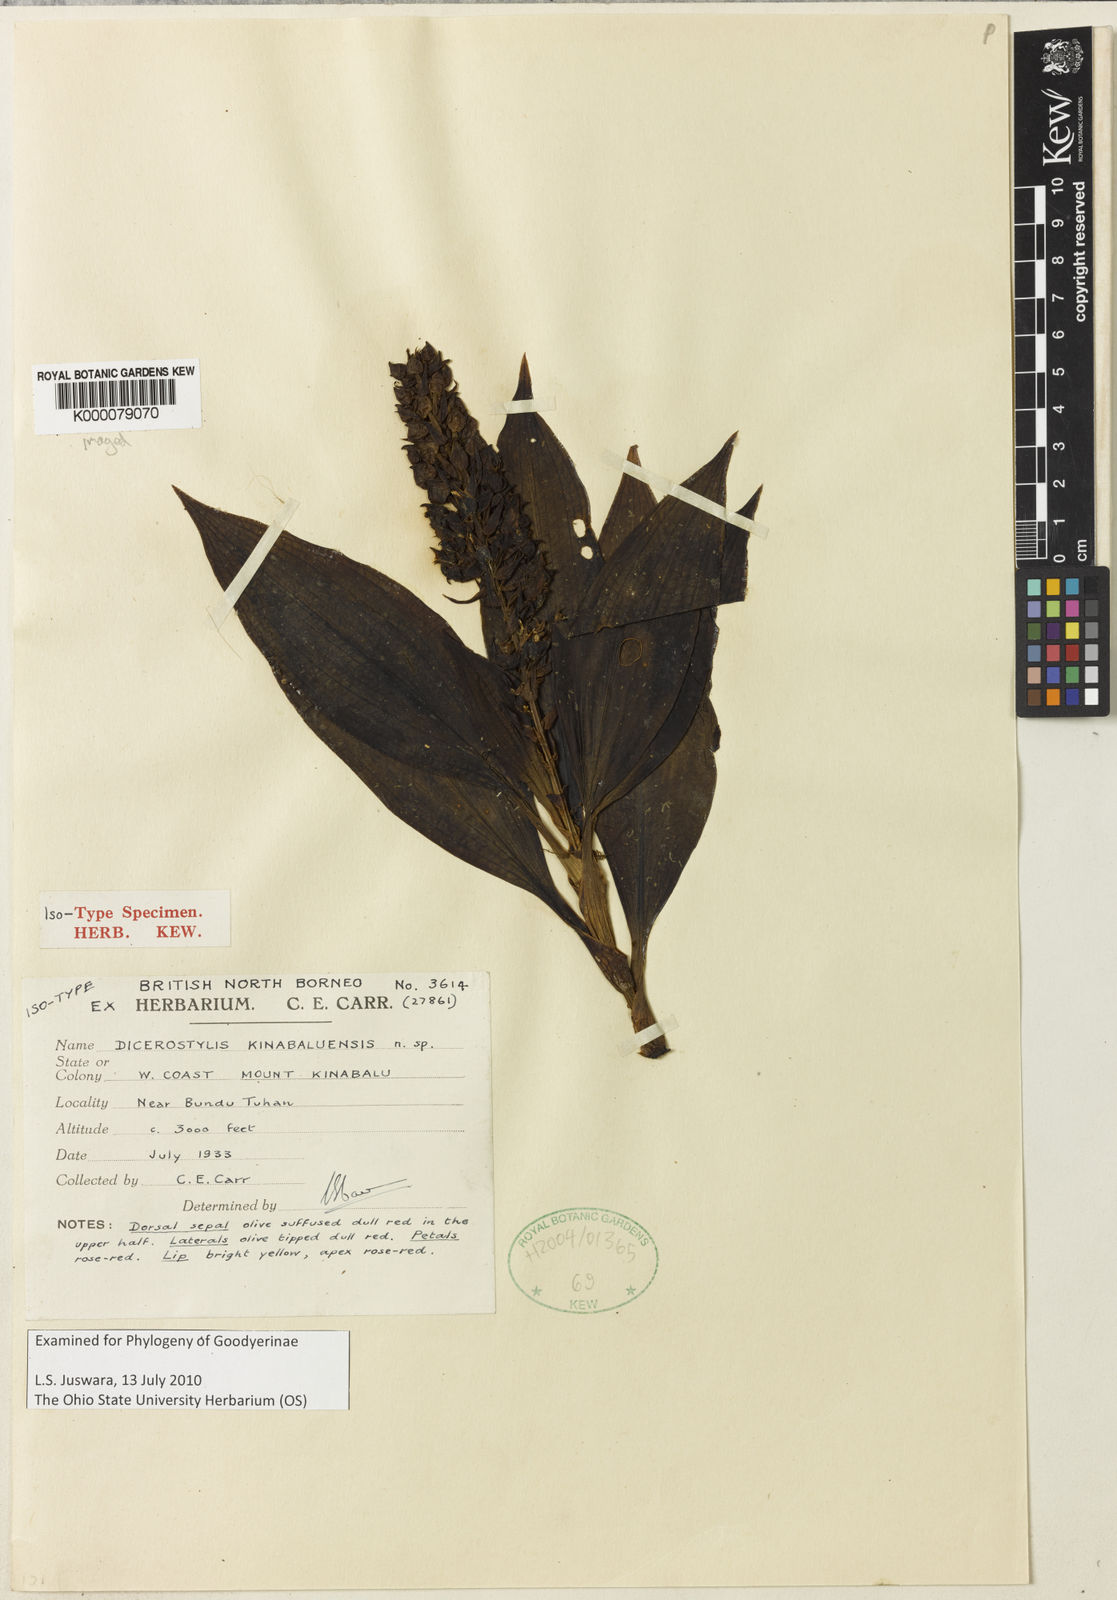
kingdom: Plantae
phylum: Tracheophyta
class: Liliopsida
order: Asparagales
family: Orchidaceae
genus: Hylophila
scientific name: Hylophila lanceolata
